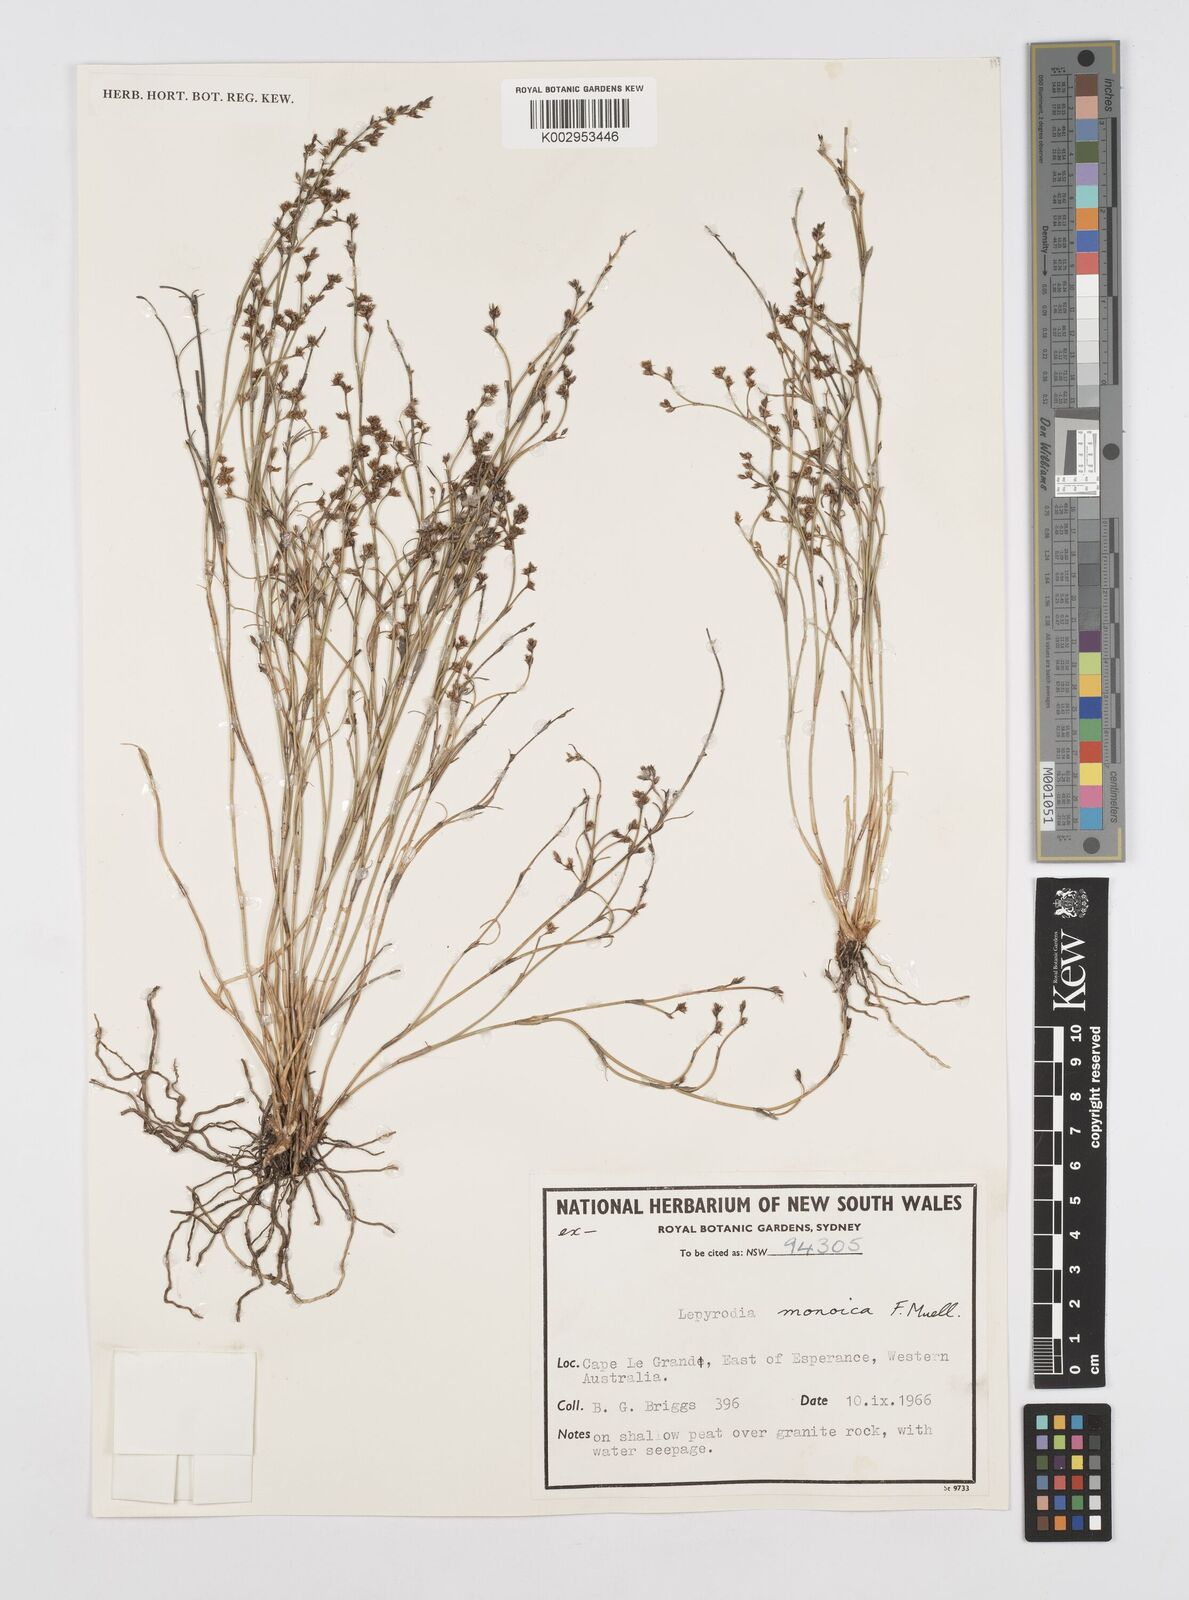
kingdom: Plantae
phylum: Tracheophyta
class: Liliopsida
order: Poales
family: Restionaceae
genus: Lepyrodia
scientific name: Lepyrodia monoica
